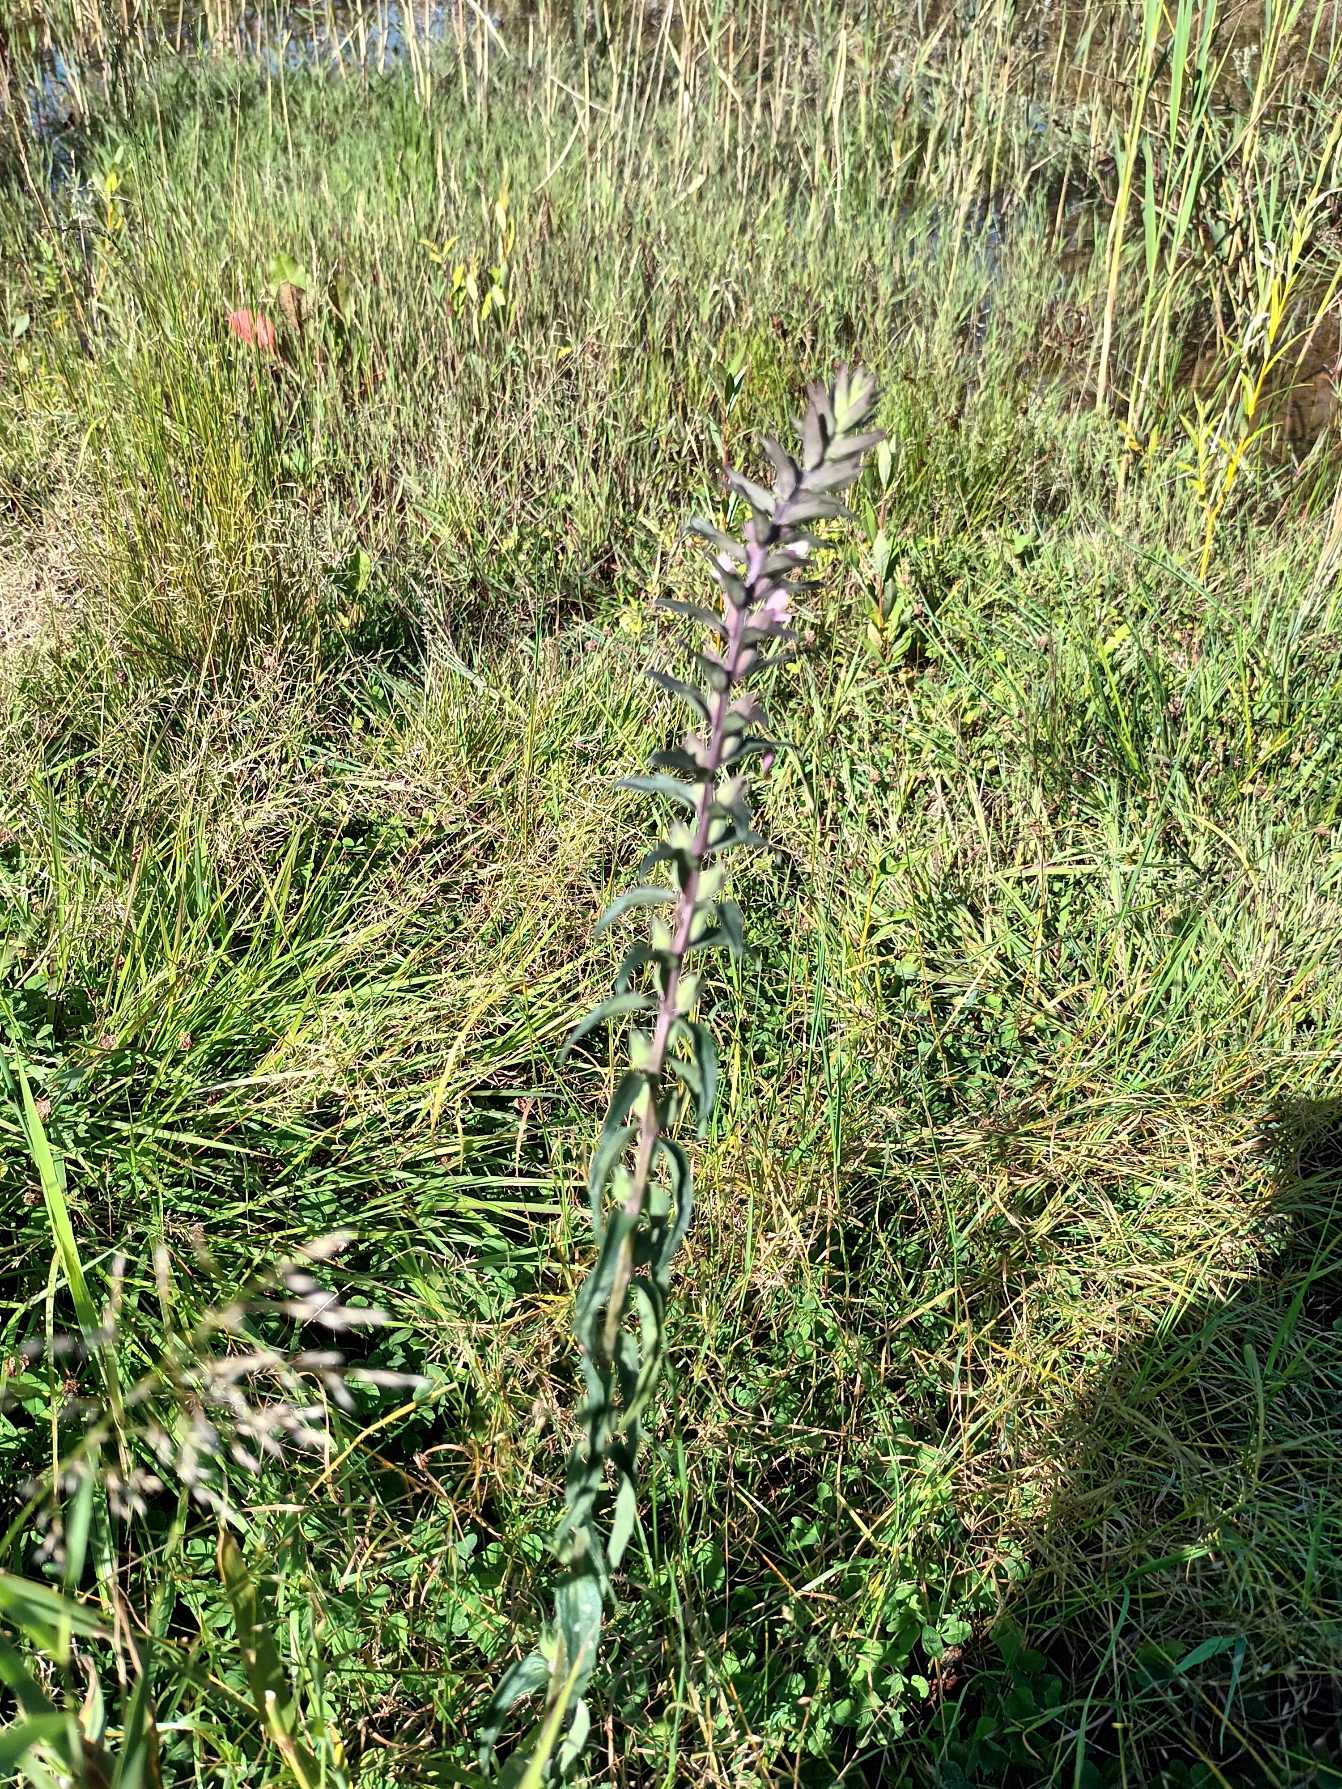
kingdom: Plantae
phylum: Tracheophyta
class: Magnoliopsida
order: Lamiales
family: Orobanchaceae
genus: Odontites
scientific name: Odontites vernus
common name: Mark-rødtop
